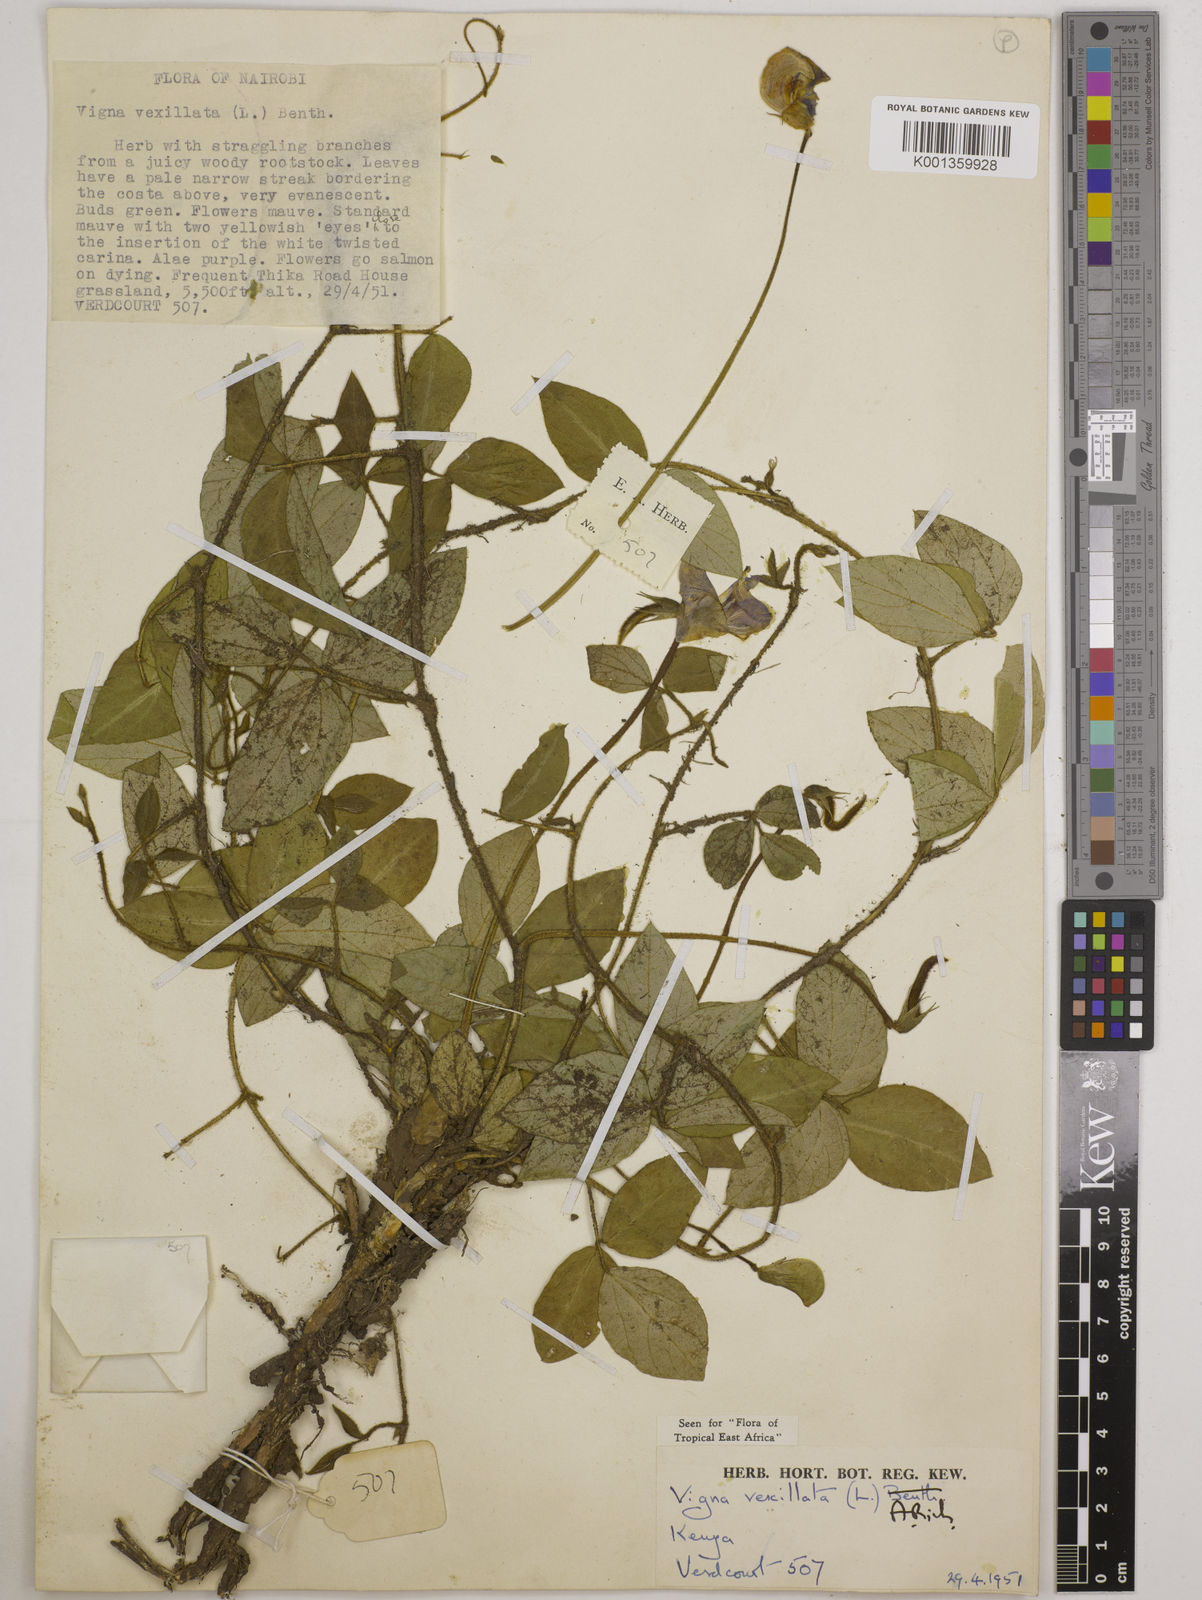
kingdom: Plantae
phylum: Tracheophyta
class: Magnoliopsida
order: Fabales
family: Fabaceae
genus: Vigna
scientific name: Vigna vexillata
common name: Zombi pea
